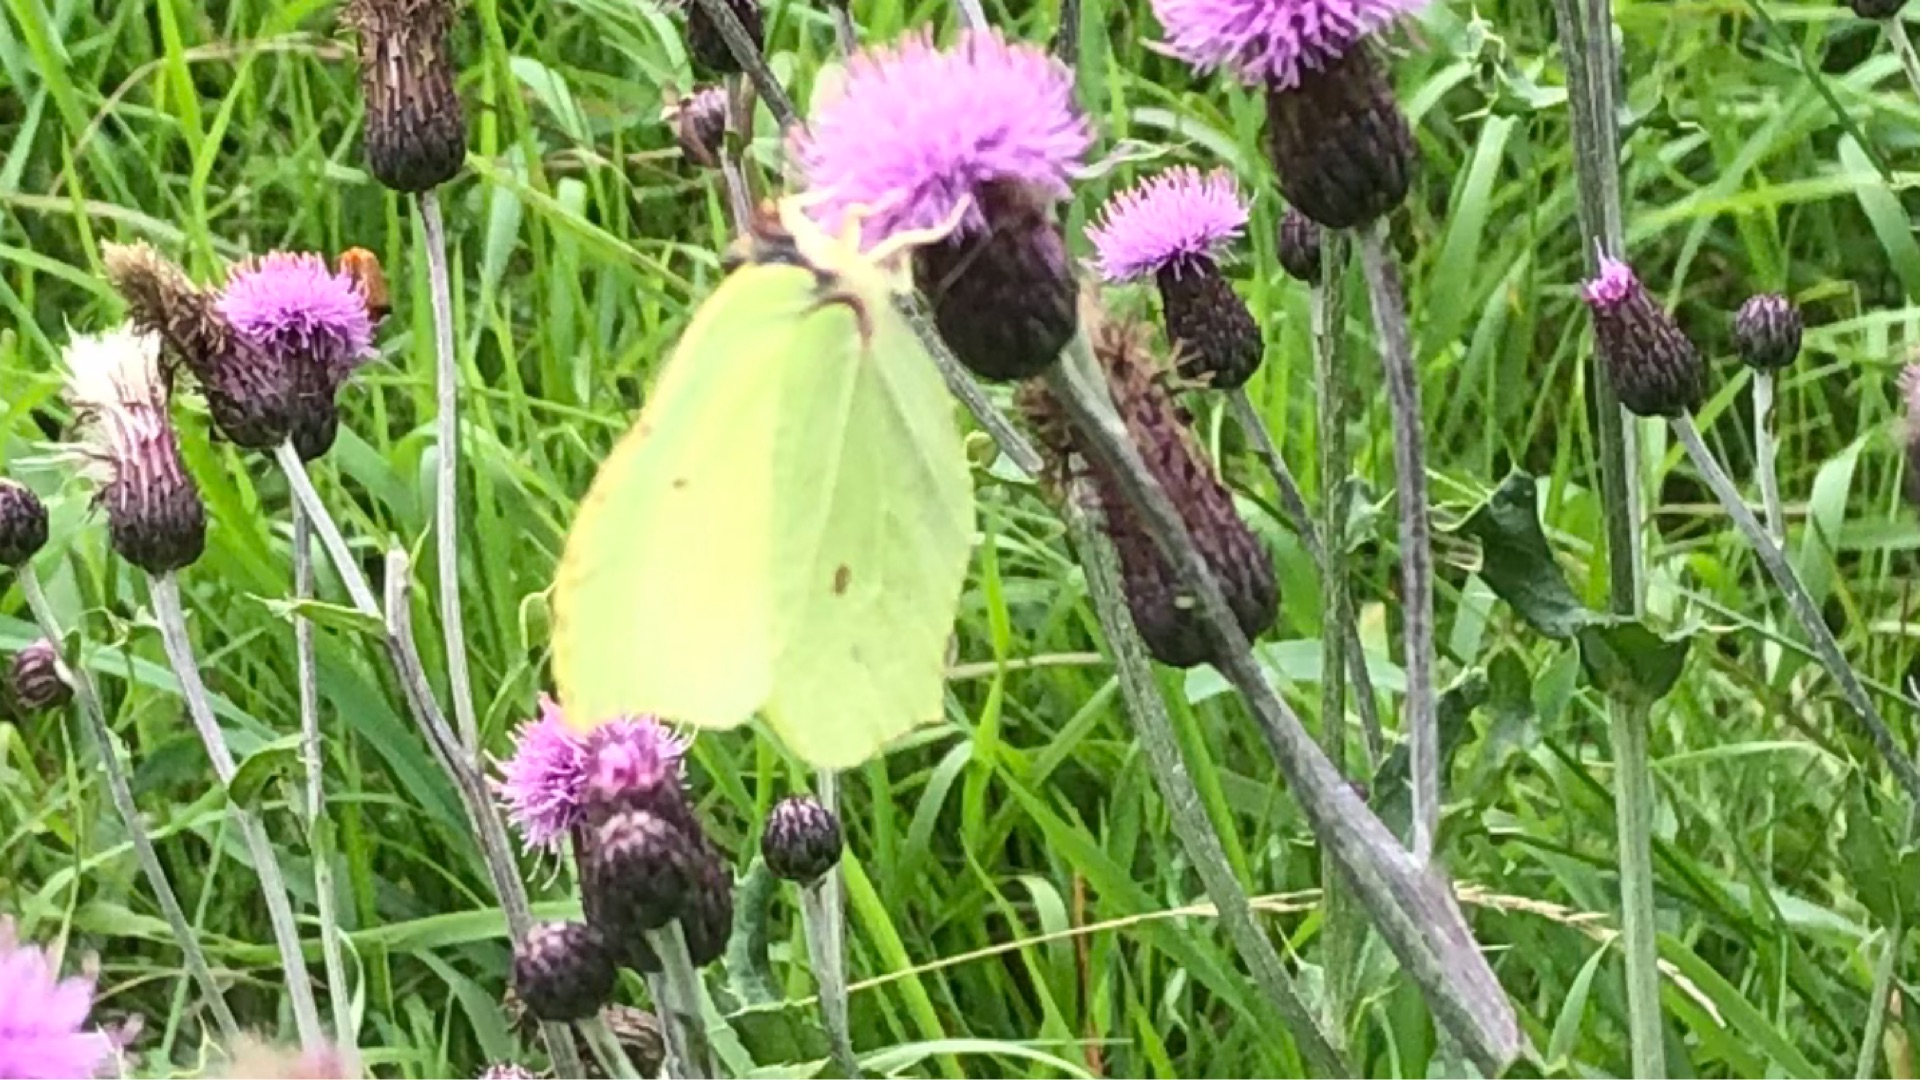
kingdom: Animalia
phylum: Arthropoda
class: Insecta
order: Lepidoptera
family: Pieridae
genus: Gonepteryx
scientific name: Gonepteryx rhamni
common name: Citronsommerfugl
